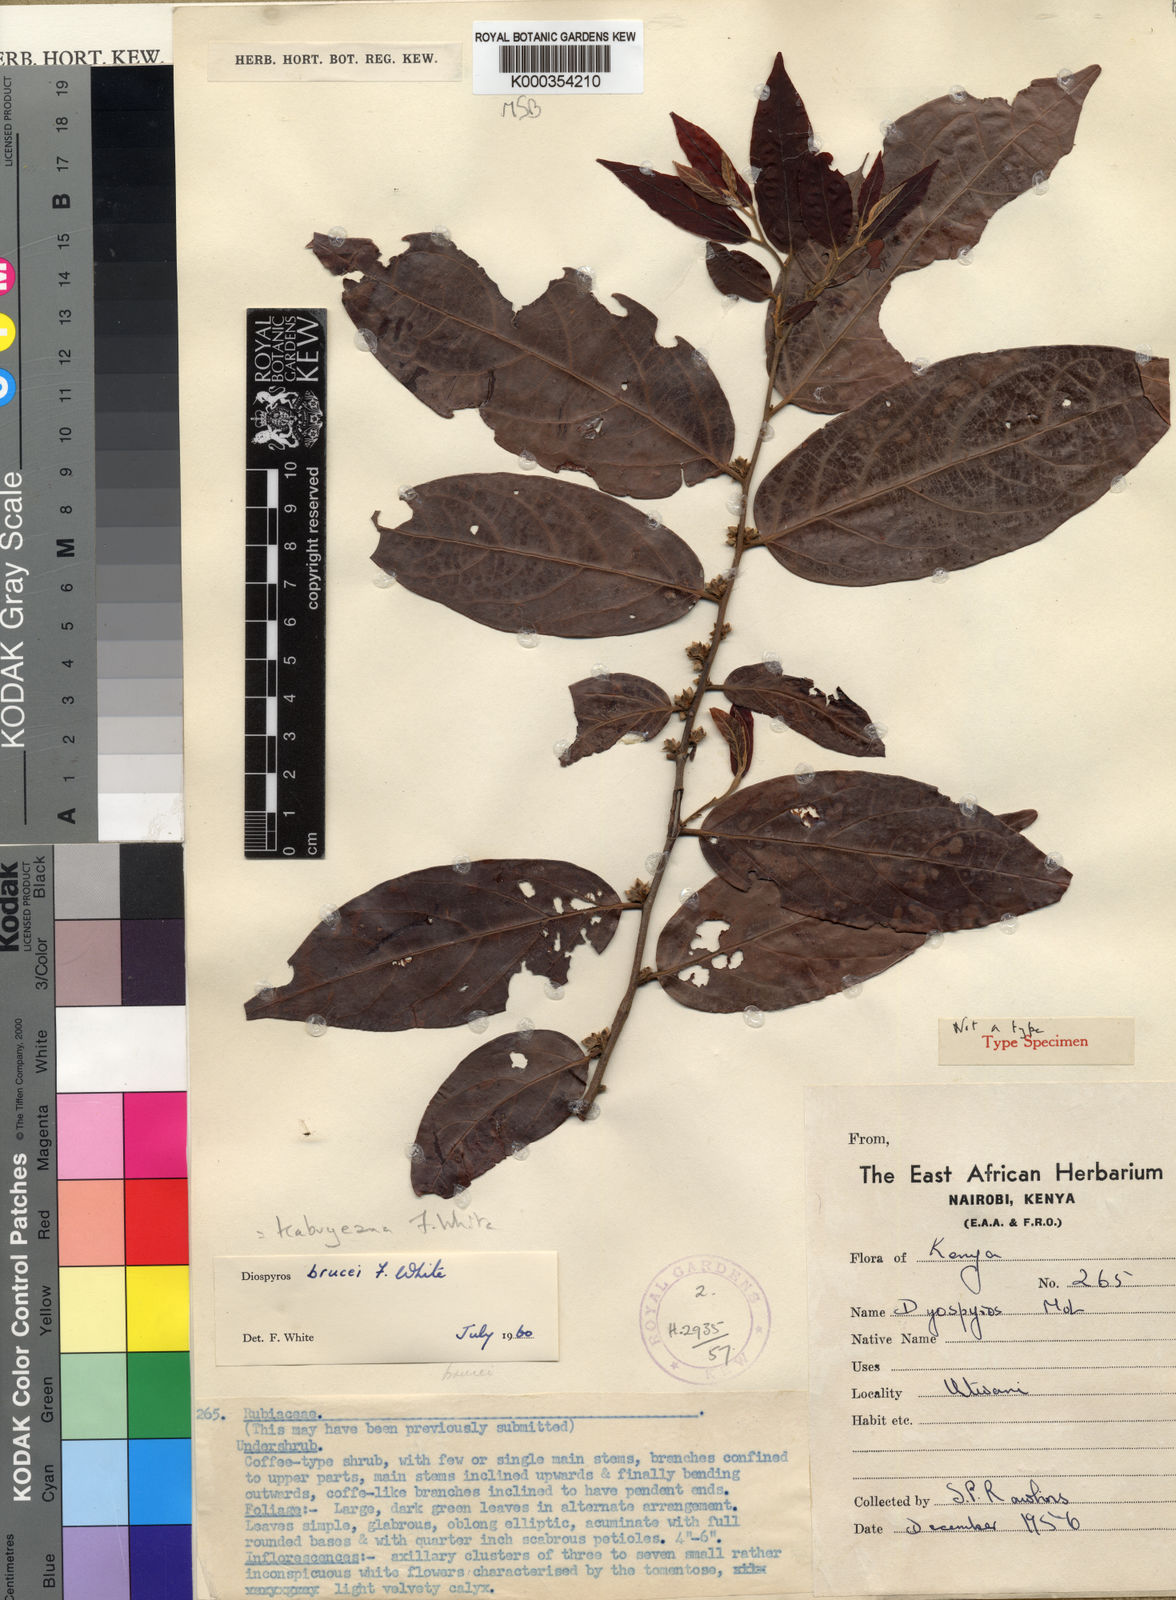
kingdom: Plantae
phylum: Tracheophyta
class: Magnoliopsida
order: Ericales
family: Ebenaceae
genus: Diospyros
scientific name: Diospyros kabuyeana
